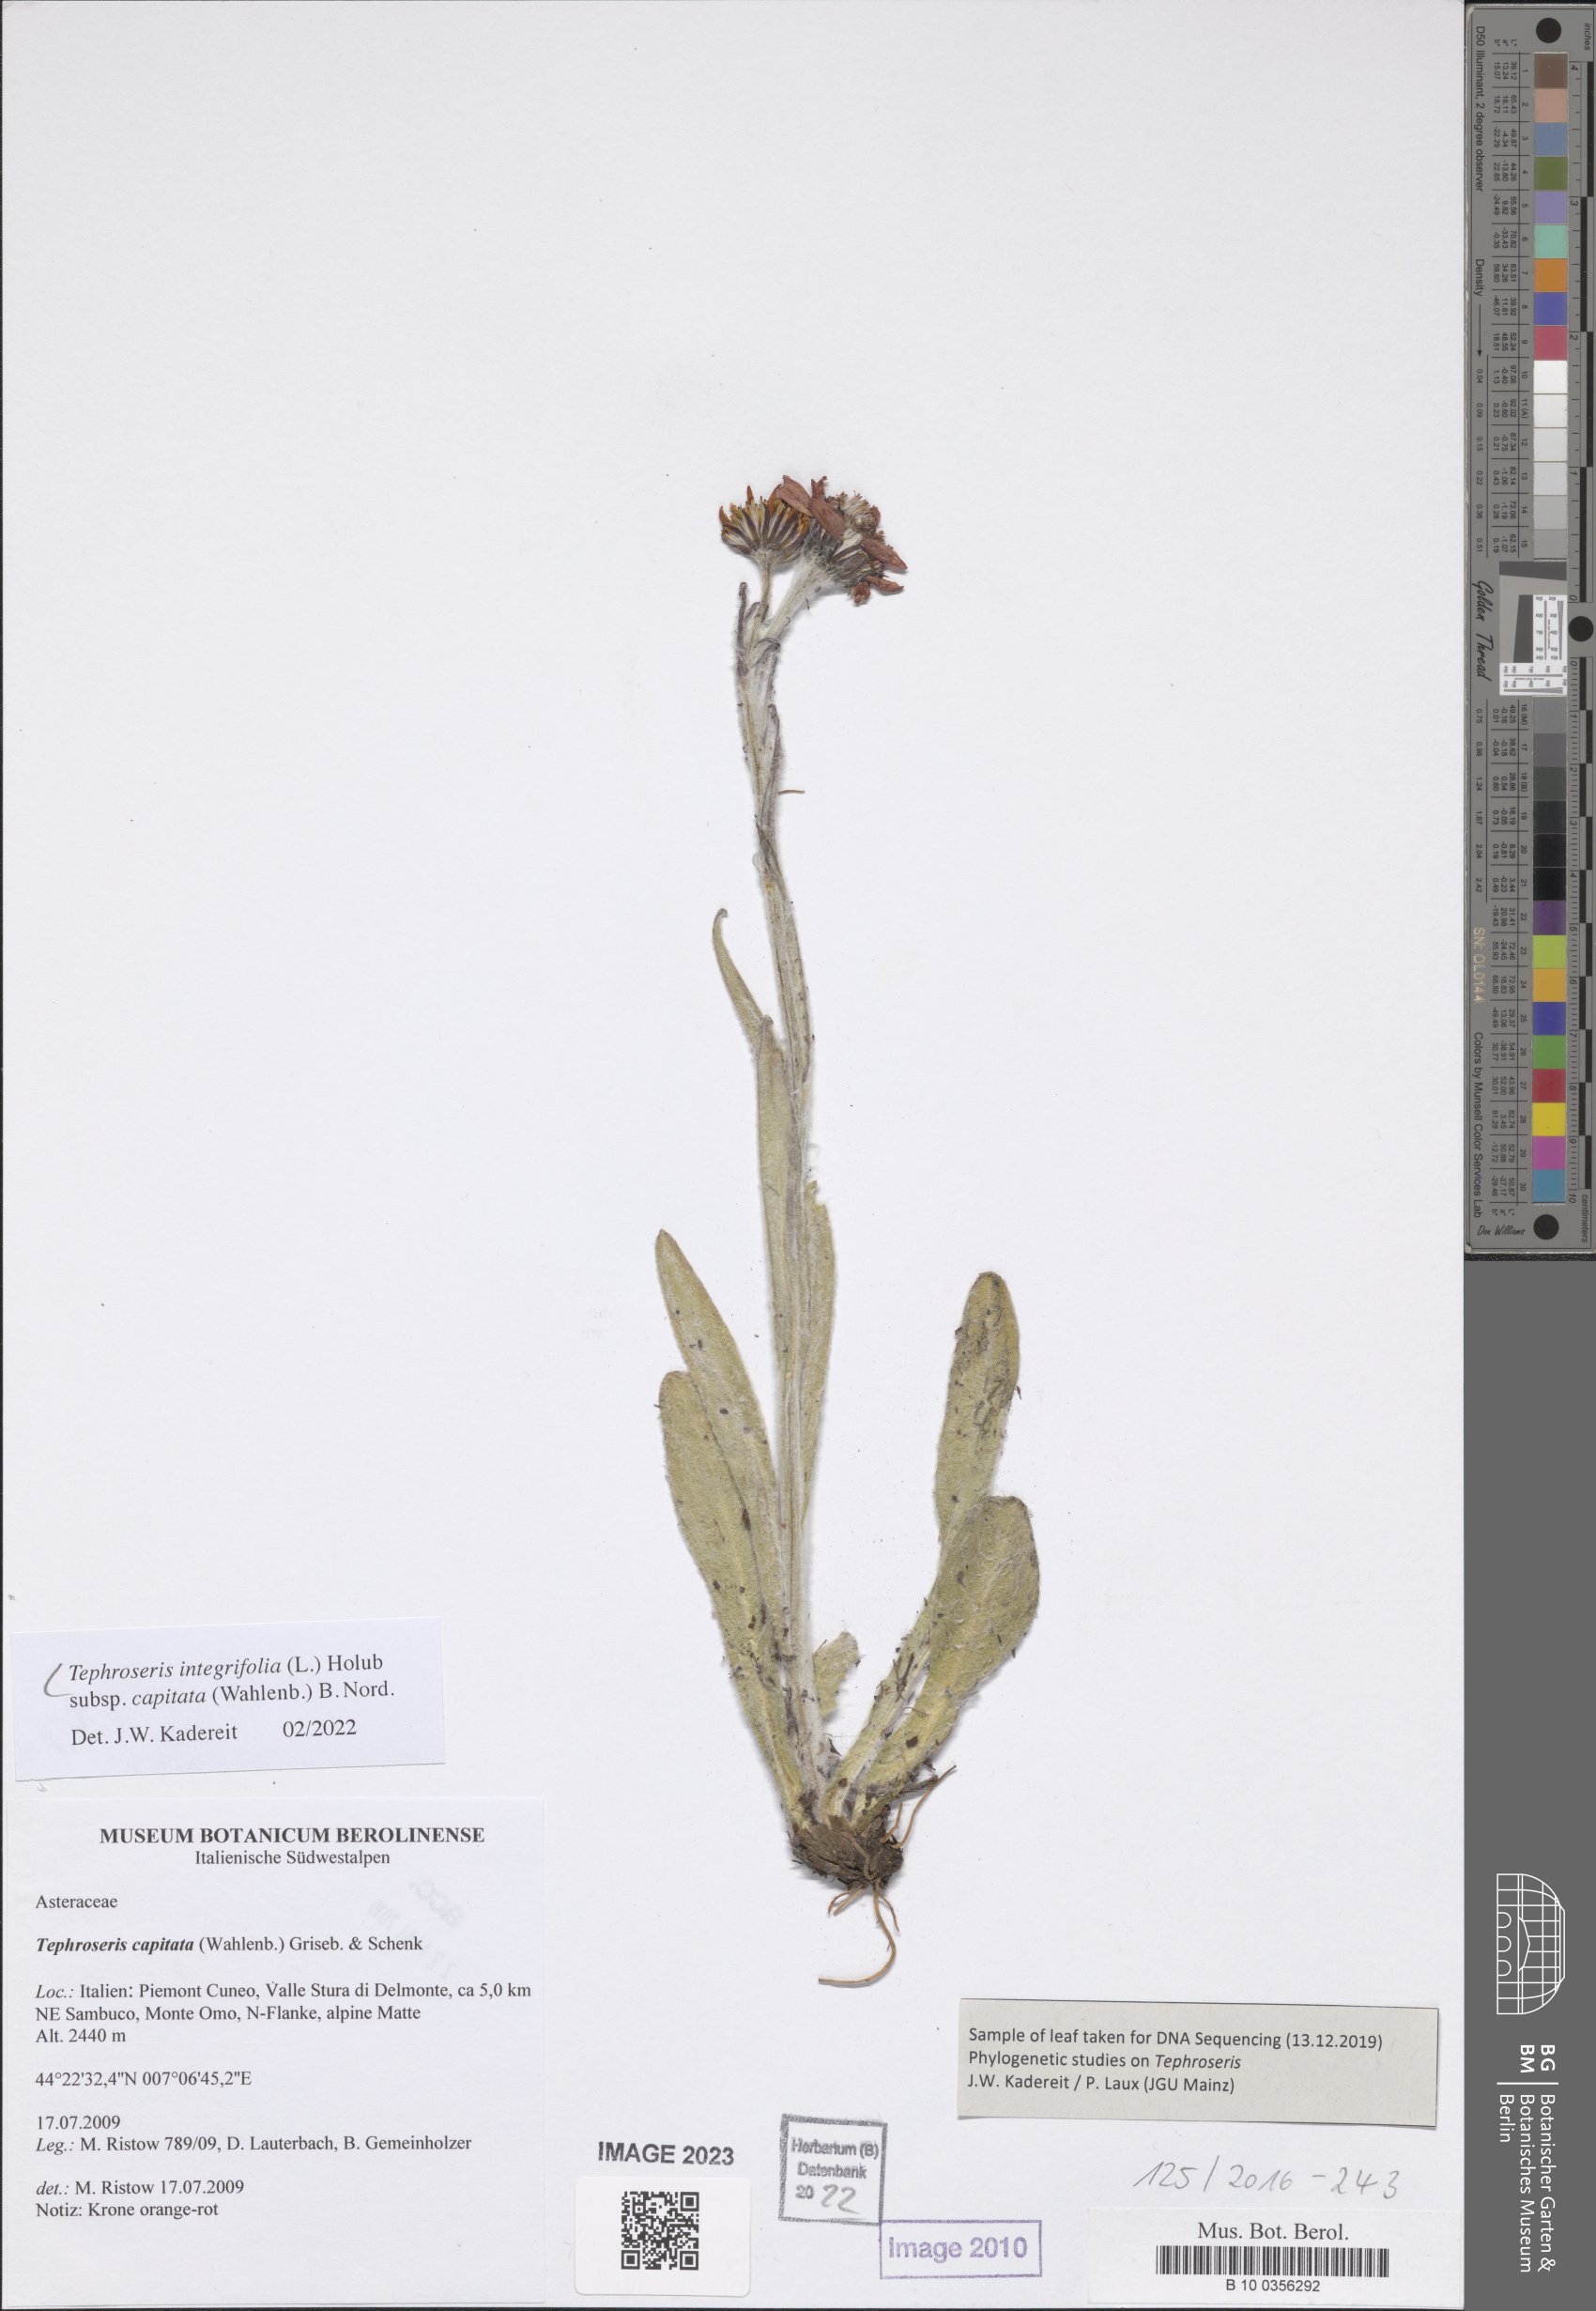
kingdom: Plantae
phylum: Tracheophyta
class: Magnoliopsida
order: Asterales
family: Asteraceae
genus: Tephroseris
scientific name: Tephroseris integrifolia
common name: Field fleawort
